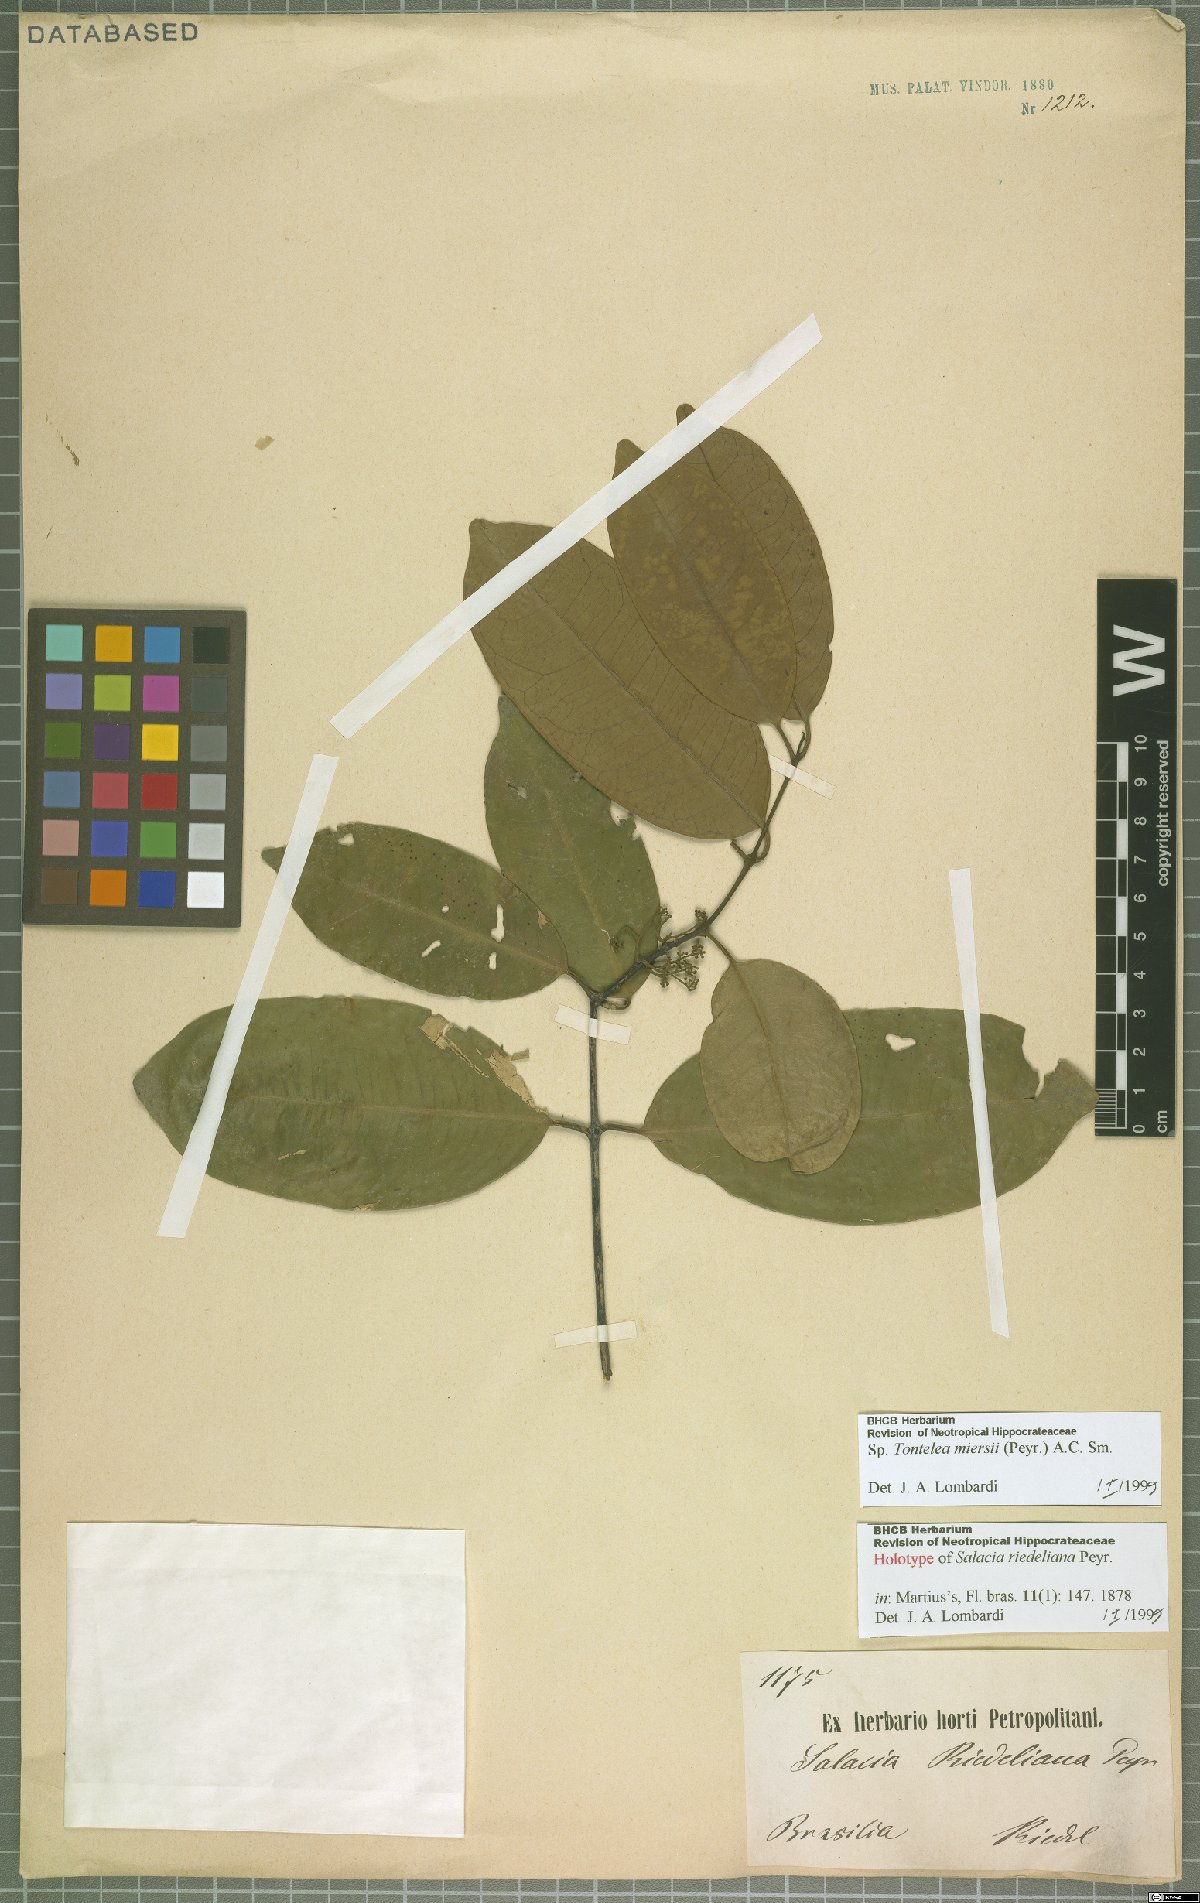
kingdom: Plantae
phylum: Tracheophyta
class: Magnoliopsida
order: Celastrales
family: Celastraceae
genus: Tontelea
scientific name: Tontelea miersii
